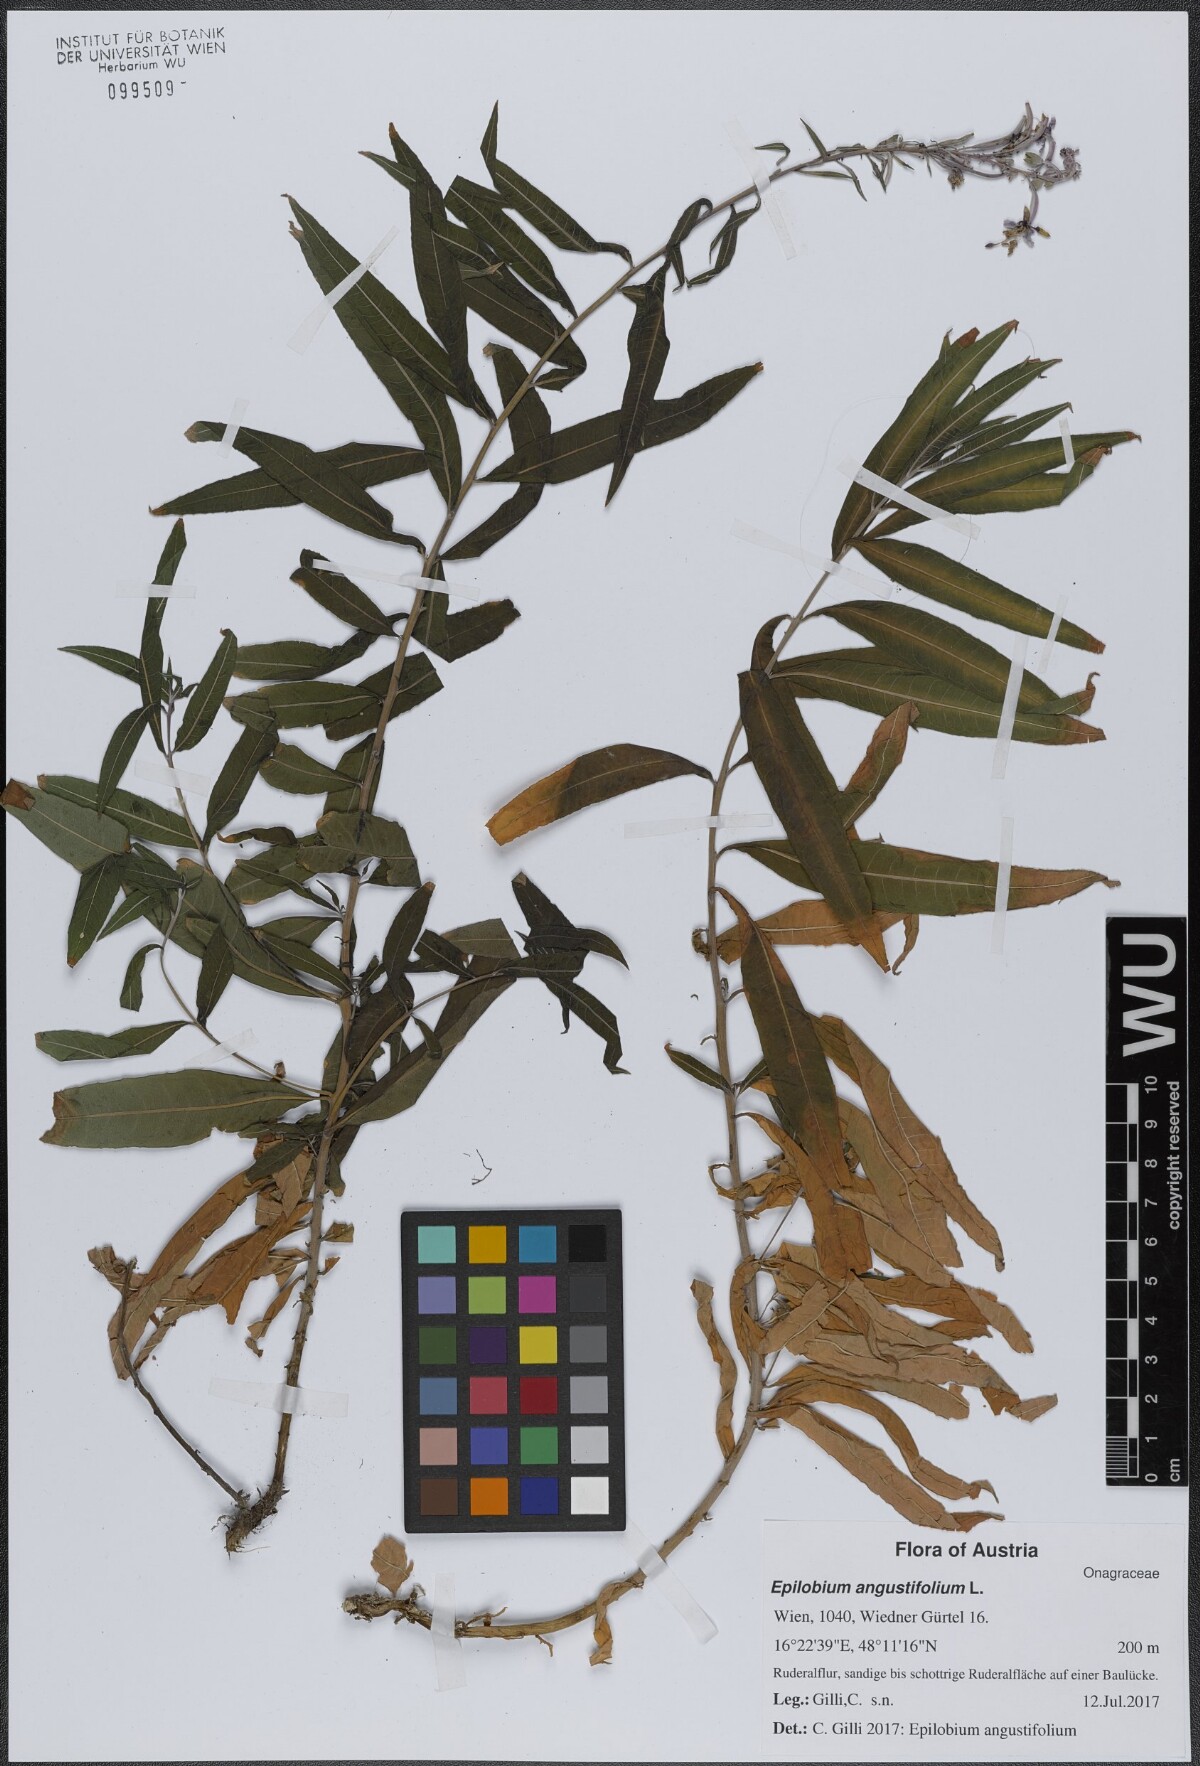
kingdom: Plantae
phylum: Tracheophyta
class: Magnoliopsida
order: Myrtales
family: Onagraceae
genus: Chamaenerion
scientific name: Chamaenerion angustifolium
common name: Fireweed
